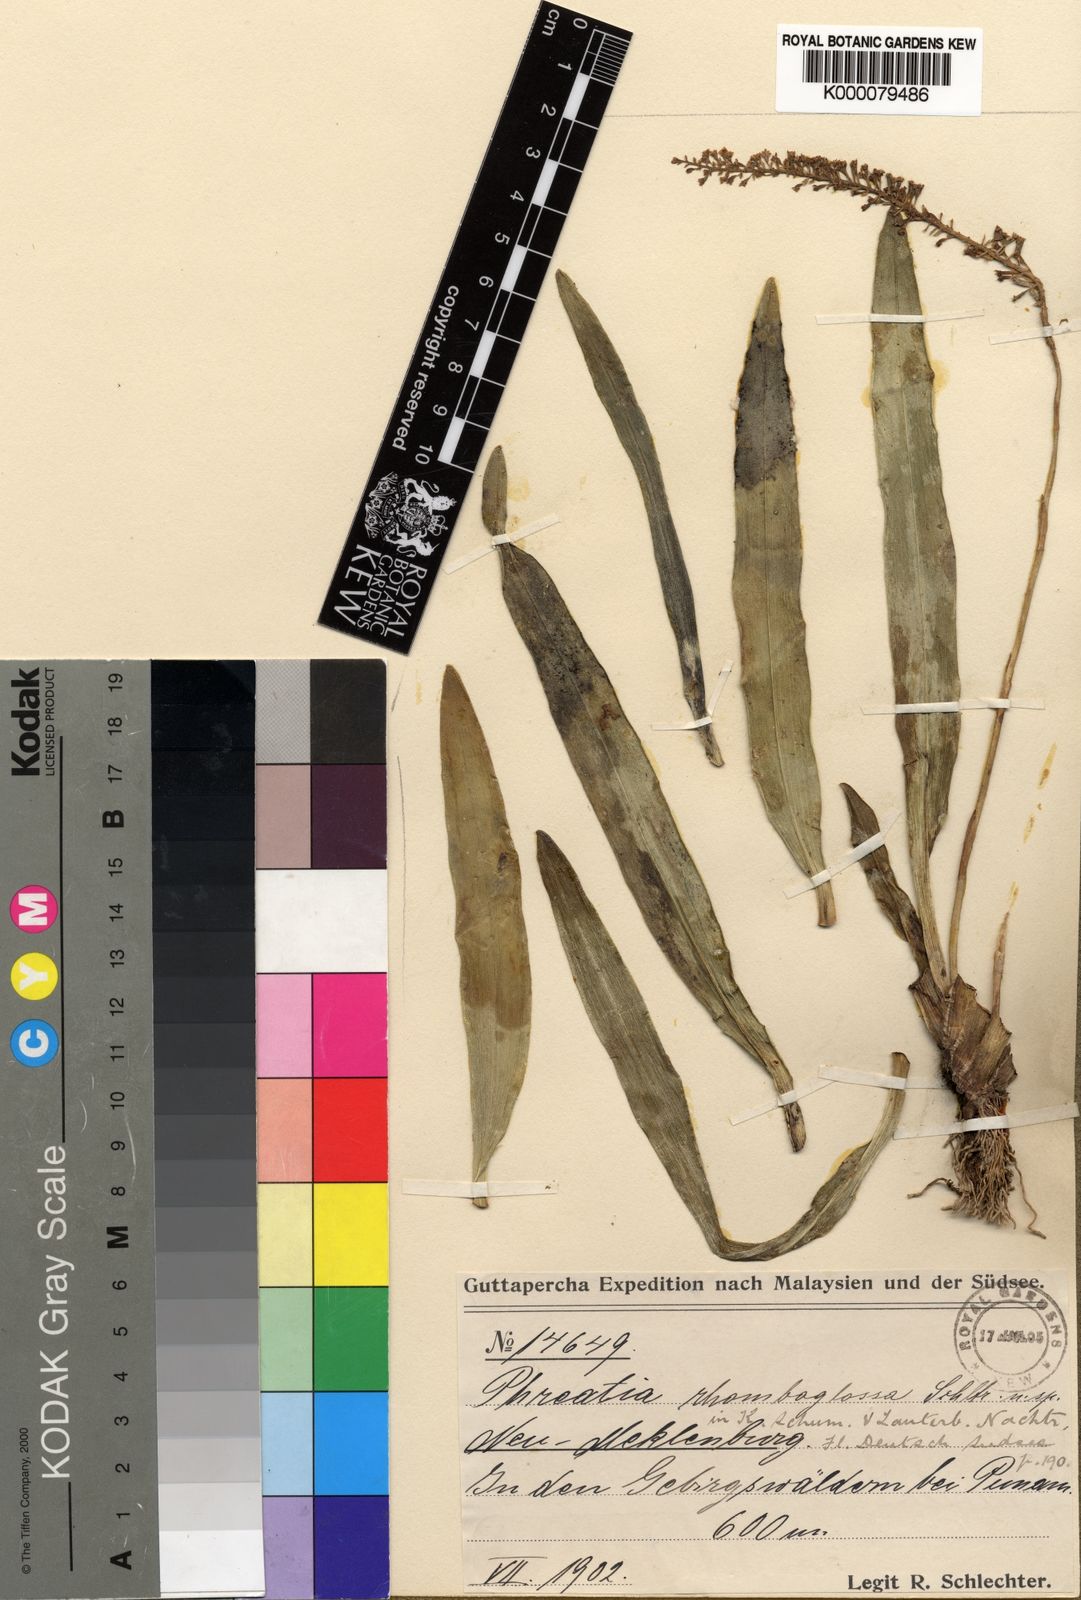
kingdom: Plantae
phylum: Tracheophyta
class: Liliopsida
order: Asparagales
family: Orchidaceae
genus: Phreatia
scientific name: Phreatia rhomboglossa
